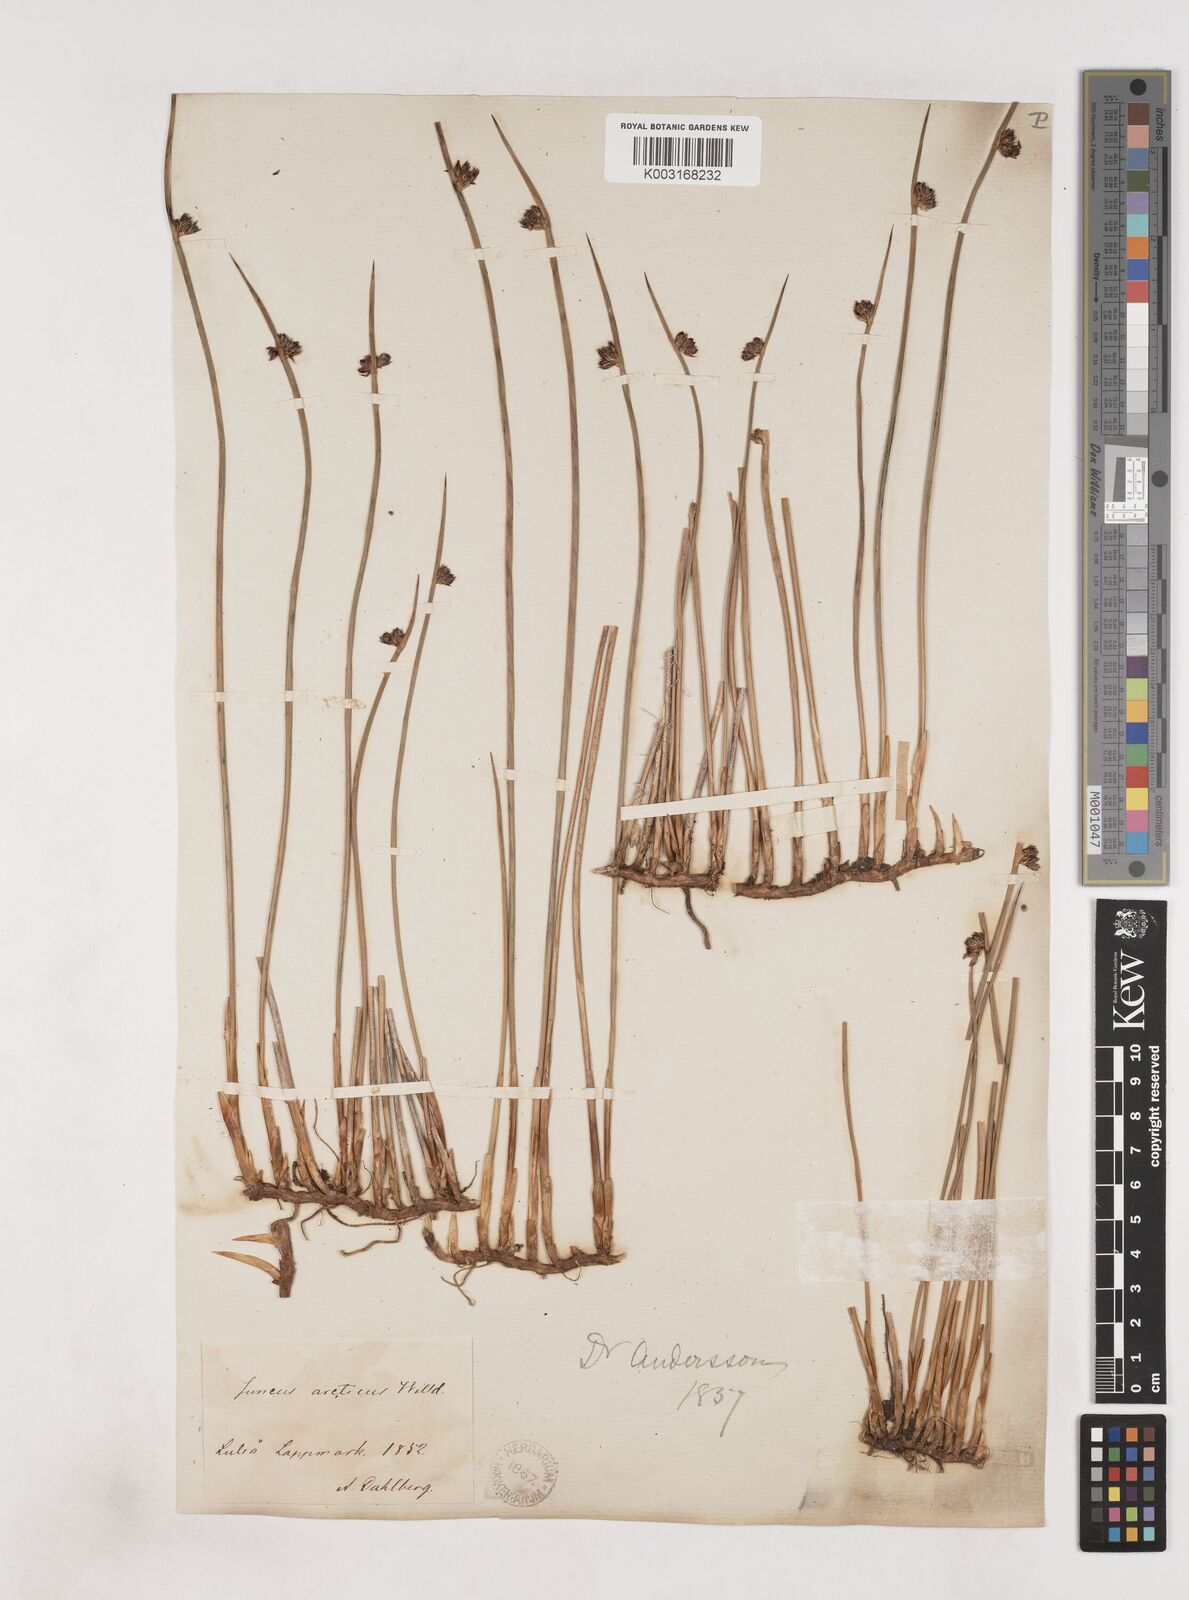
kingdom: Plantae
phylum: Tracheophyta
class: Liliopsida
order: Poales
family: Juncaceae
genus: Juncus
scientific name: Juncus arcticus
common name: Arctic rush
